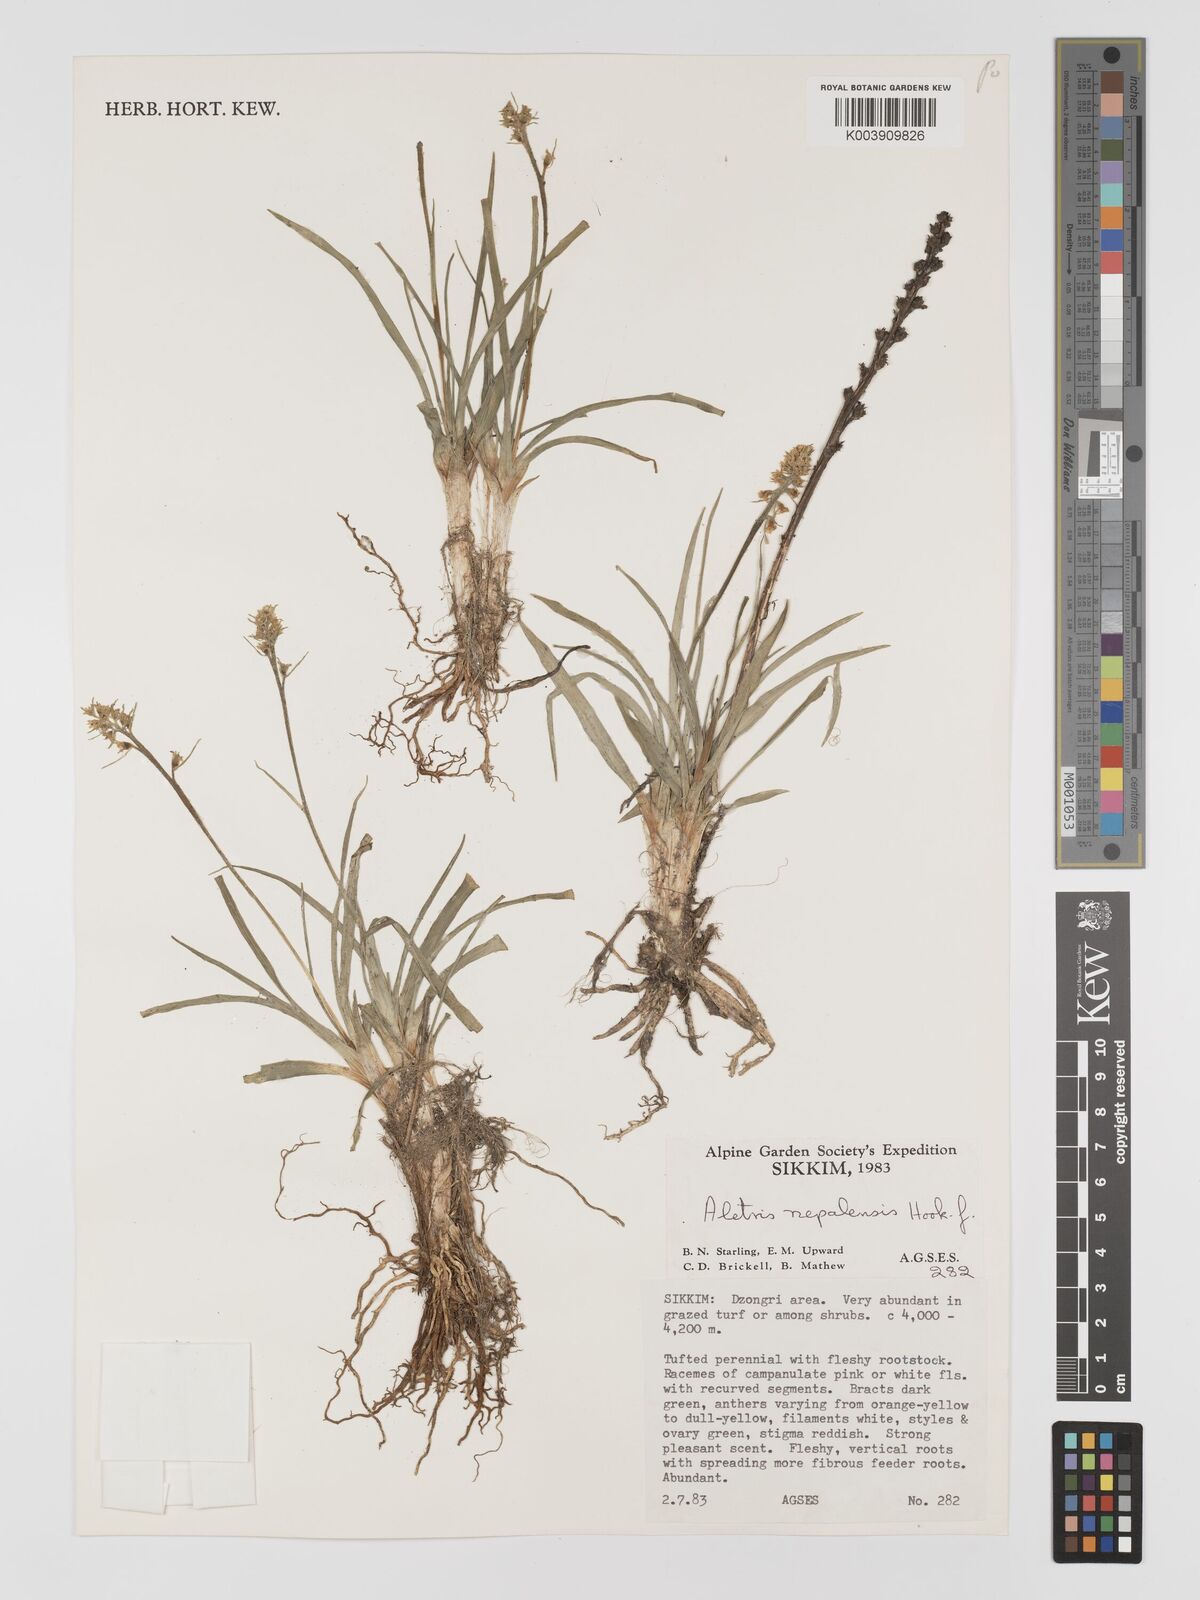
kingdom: Plantae
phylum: Tracheophyta
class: Liliopsida
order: Dioscoreales
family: Nartheciaceae
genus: Aletris
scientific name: Aletris pauciflora
